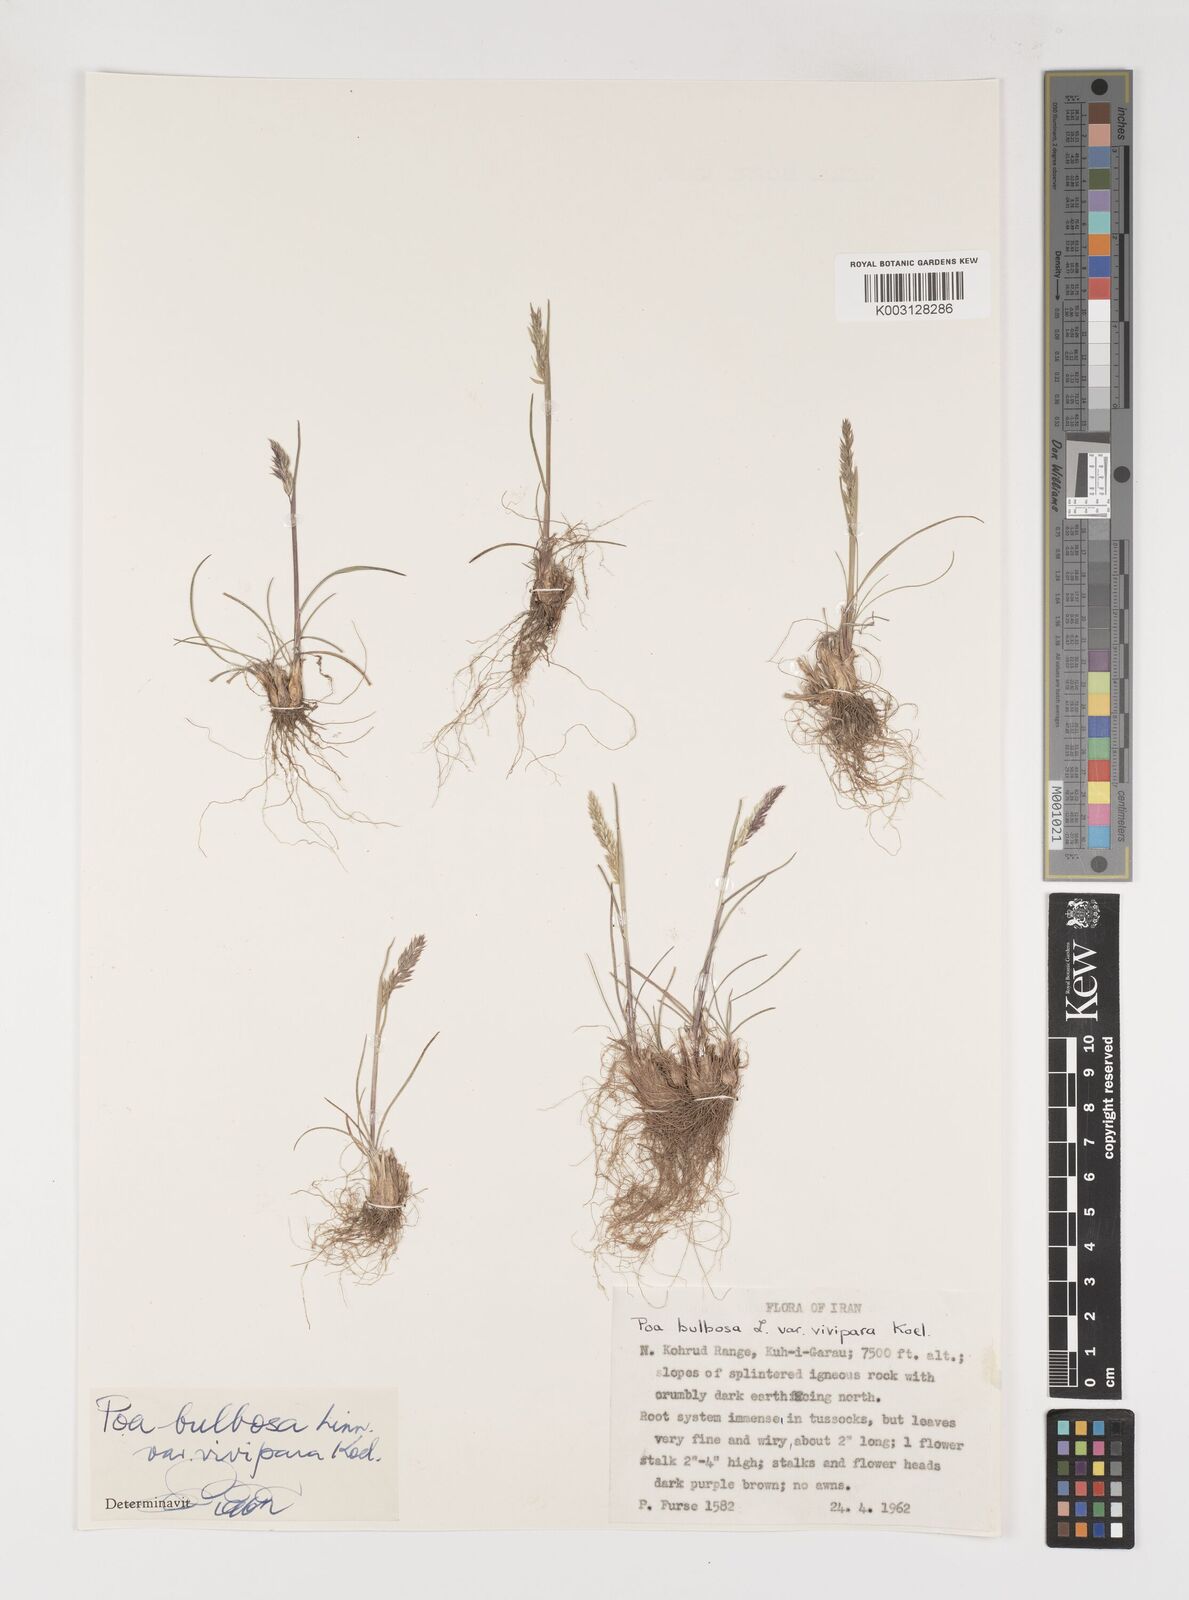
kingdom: Plantae
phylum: Tracheophyta
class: Liliopsida
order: Poales
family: Poaceae
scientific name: Poaceae
